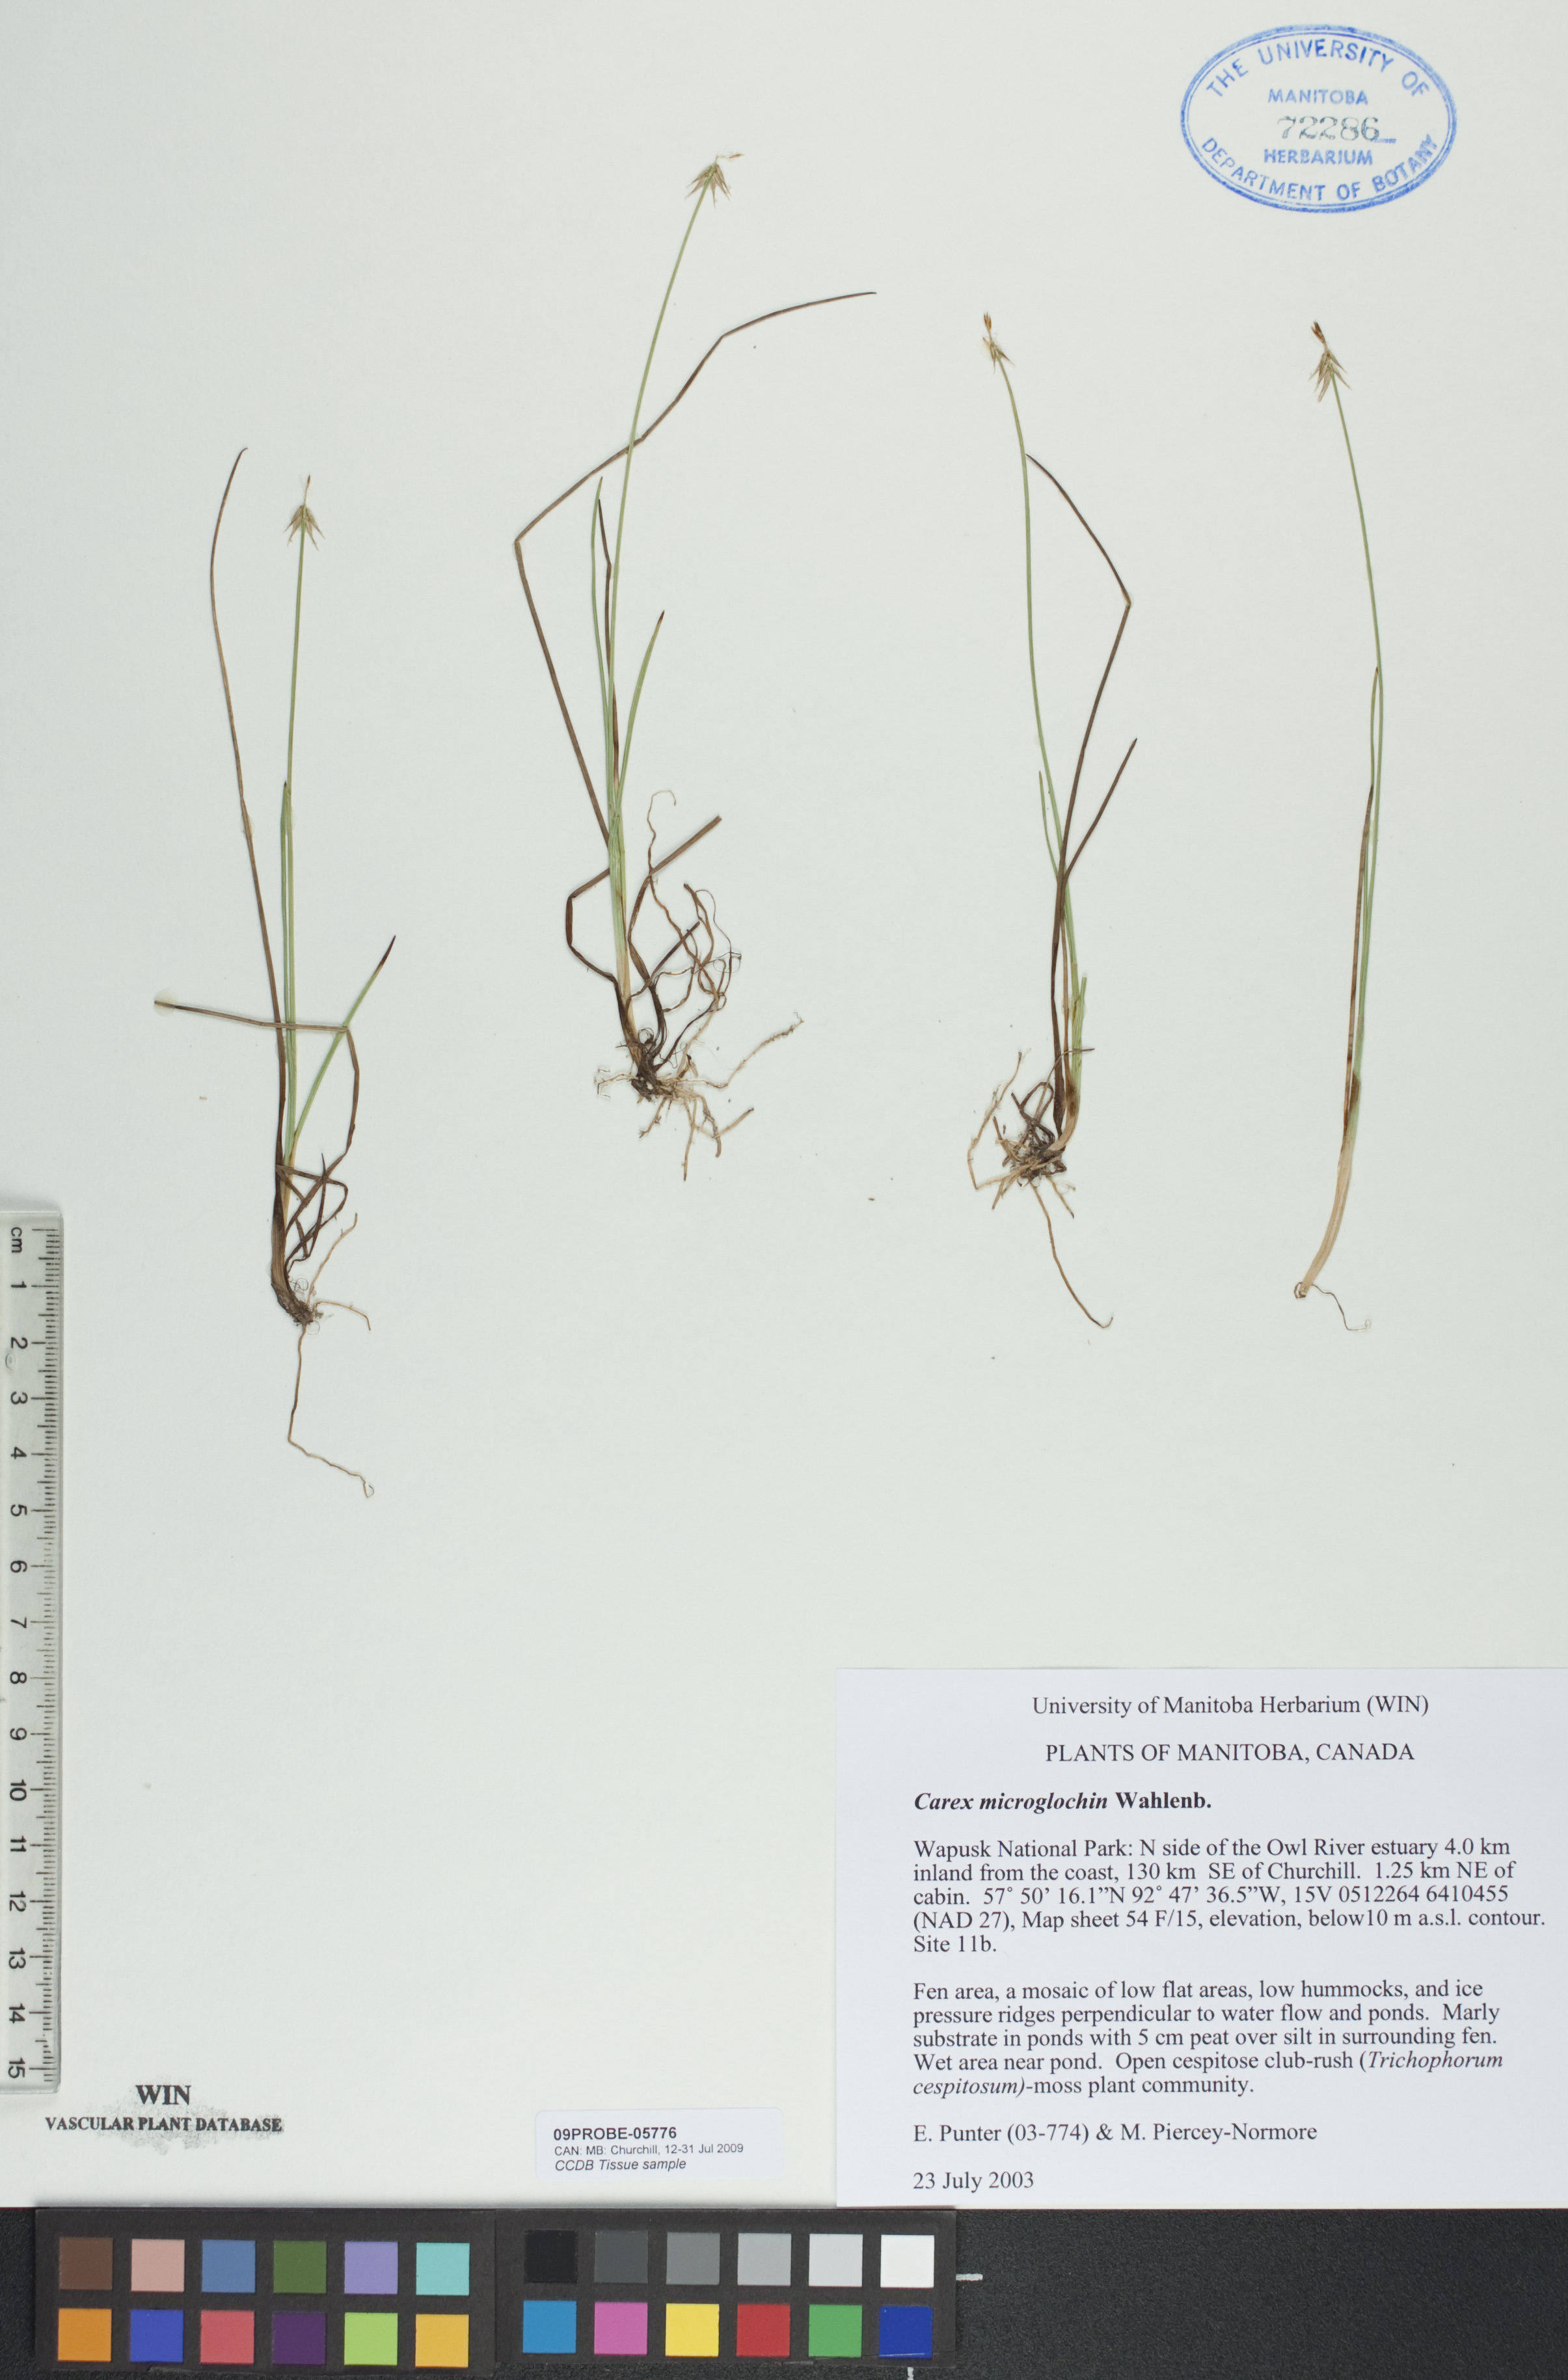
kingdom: Plantae
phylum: Tracheophyta
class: Liliopsida
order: Poales
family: Cyperaceae
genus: Carex
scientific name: Carex microglochin
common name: Bristle sedge
